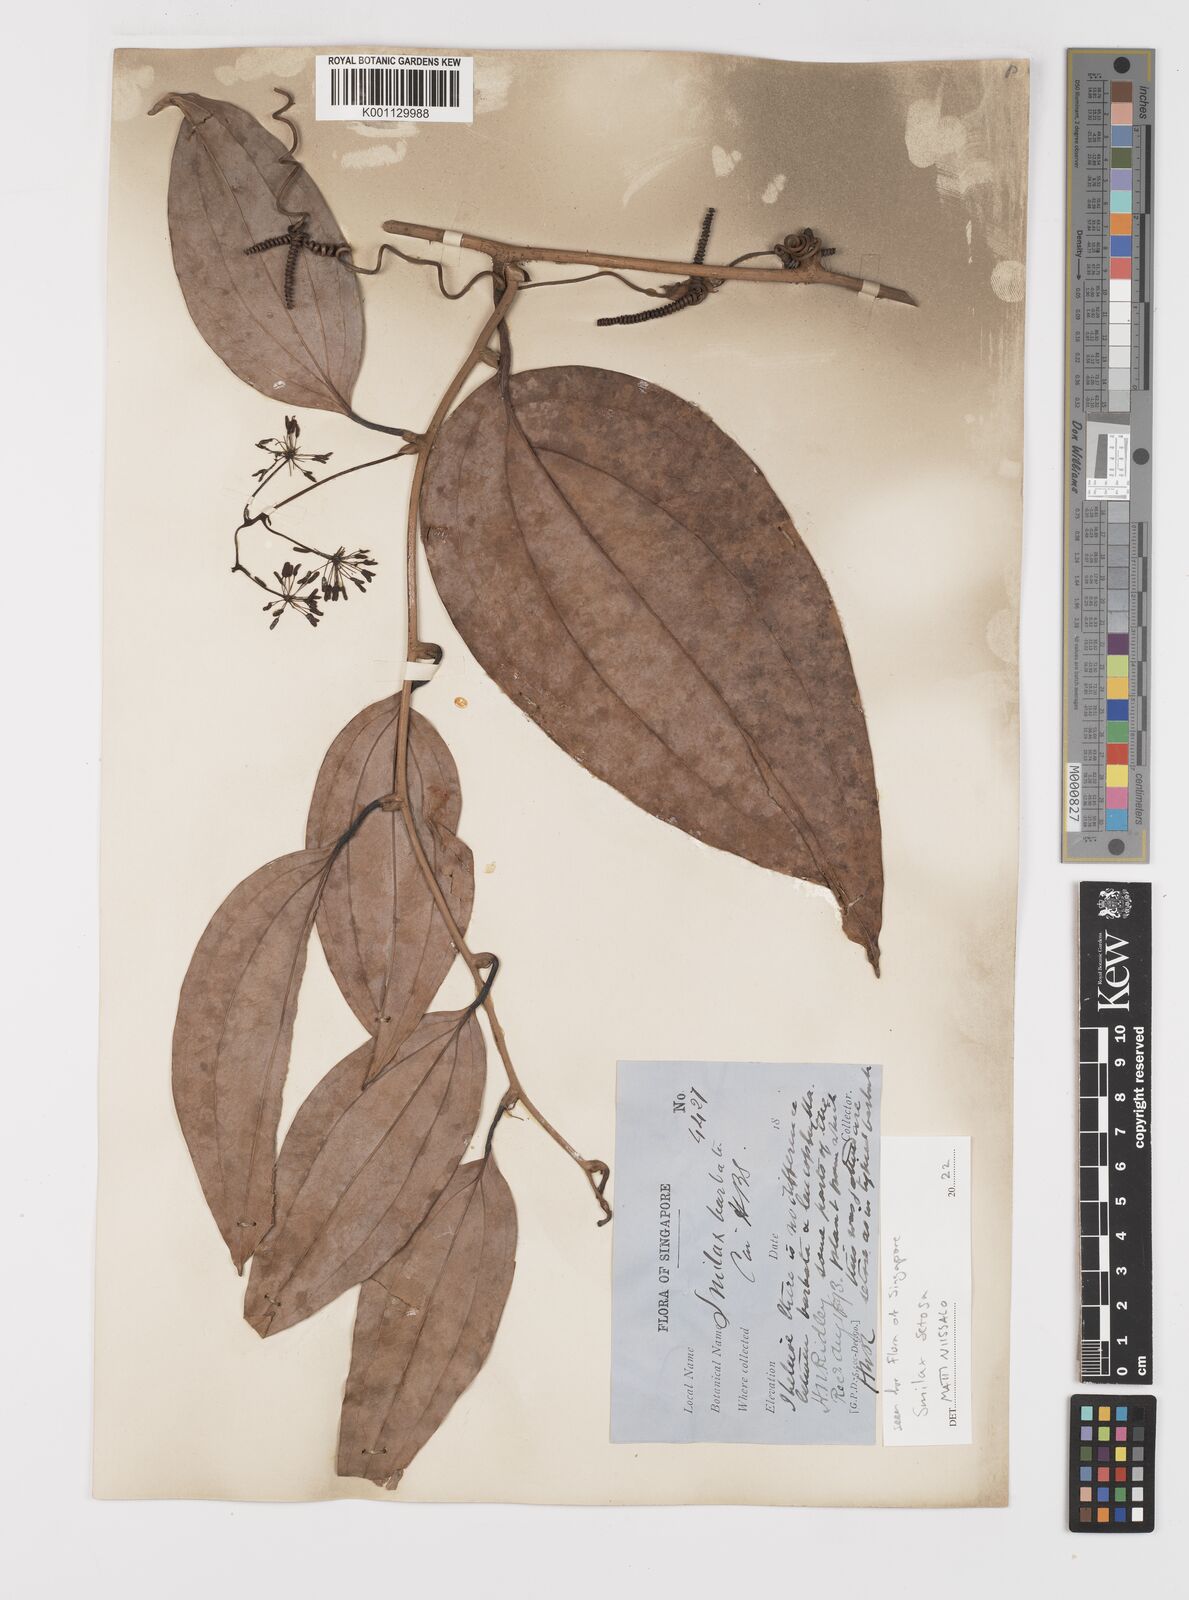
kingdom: Plantae
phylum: Tracheophyta
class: Liliopsida
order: Liliales
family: Smilacaceae
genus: Smilax
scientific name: Smilax setosa
